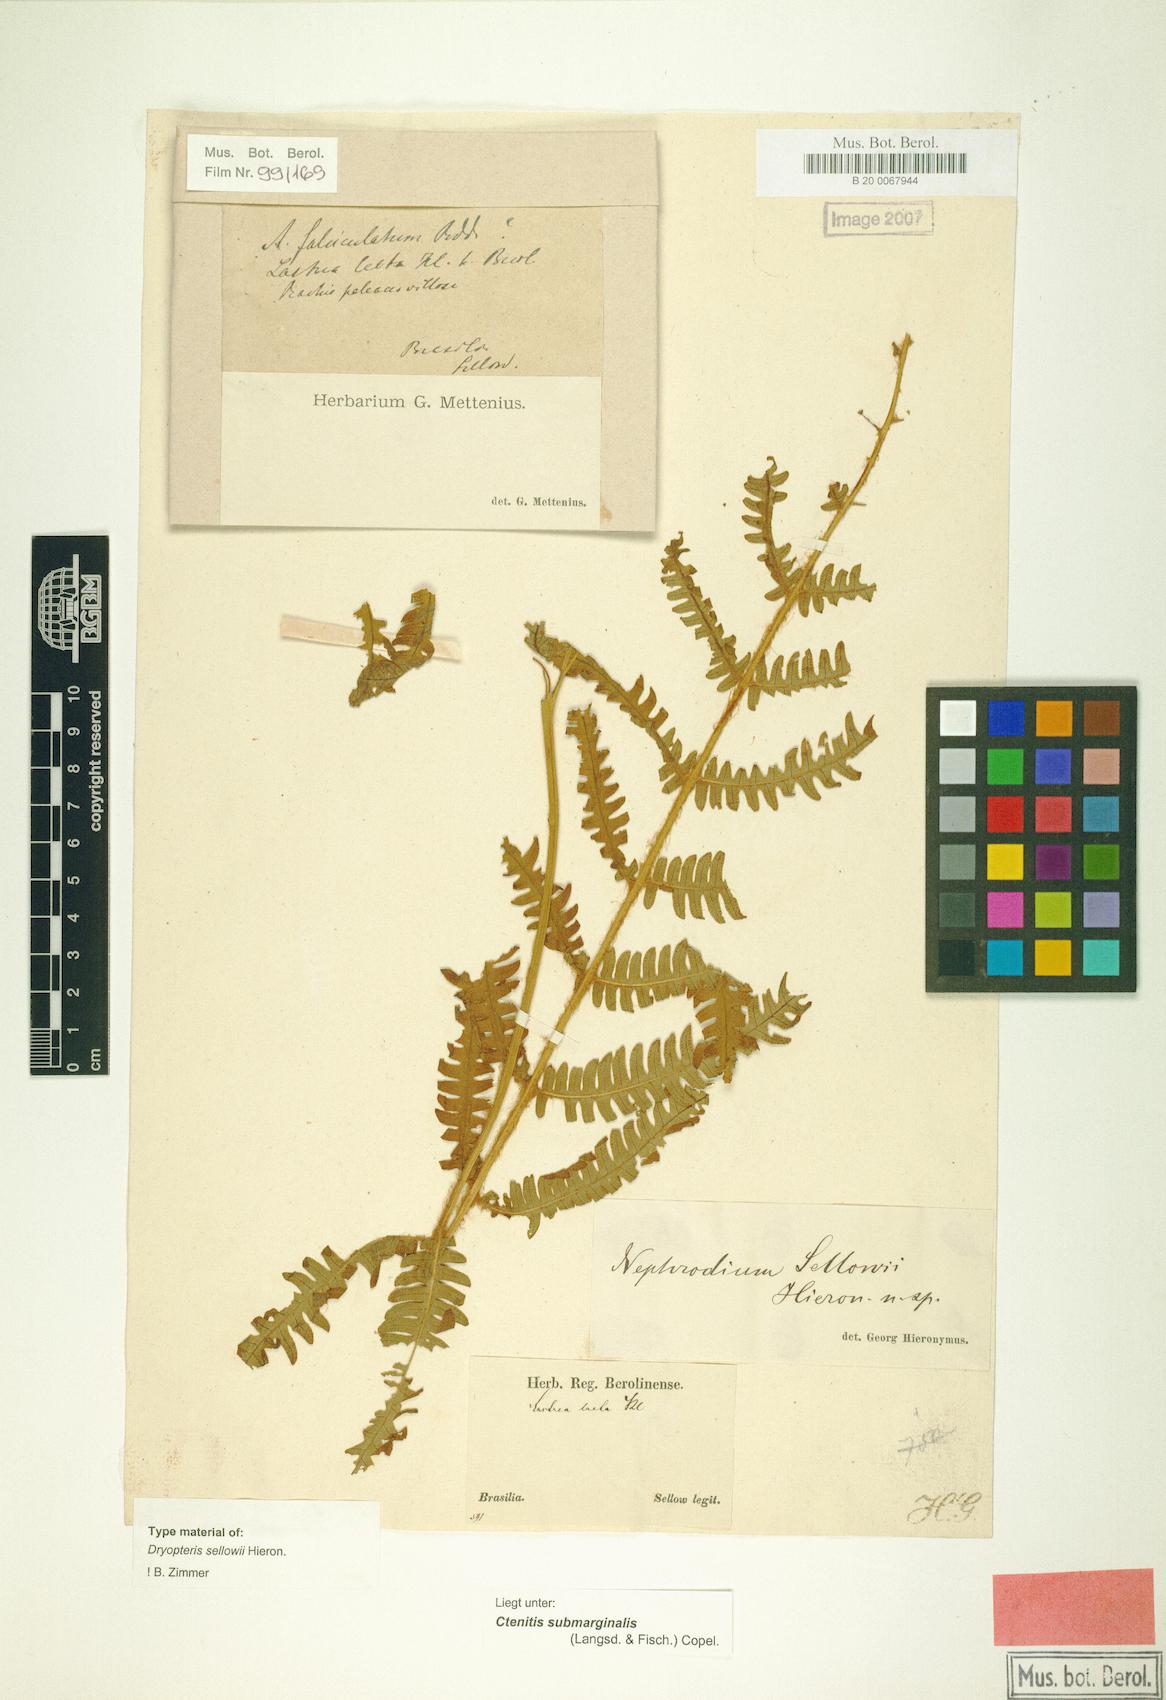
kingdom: Plantae
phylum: Tracheophyta
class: Polypodiopsida
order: Polypodiales
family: Dryopteridaceae
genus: Ctenitis
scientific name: Ctenitis submarginalis
